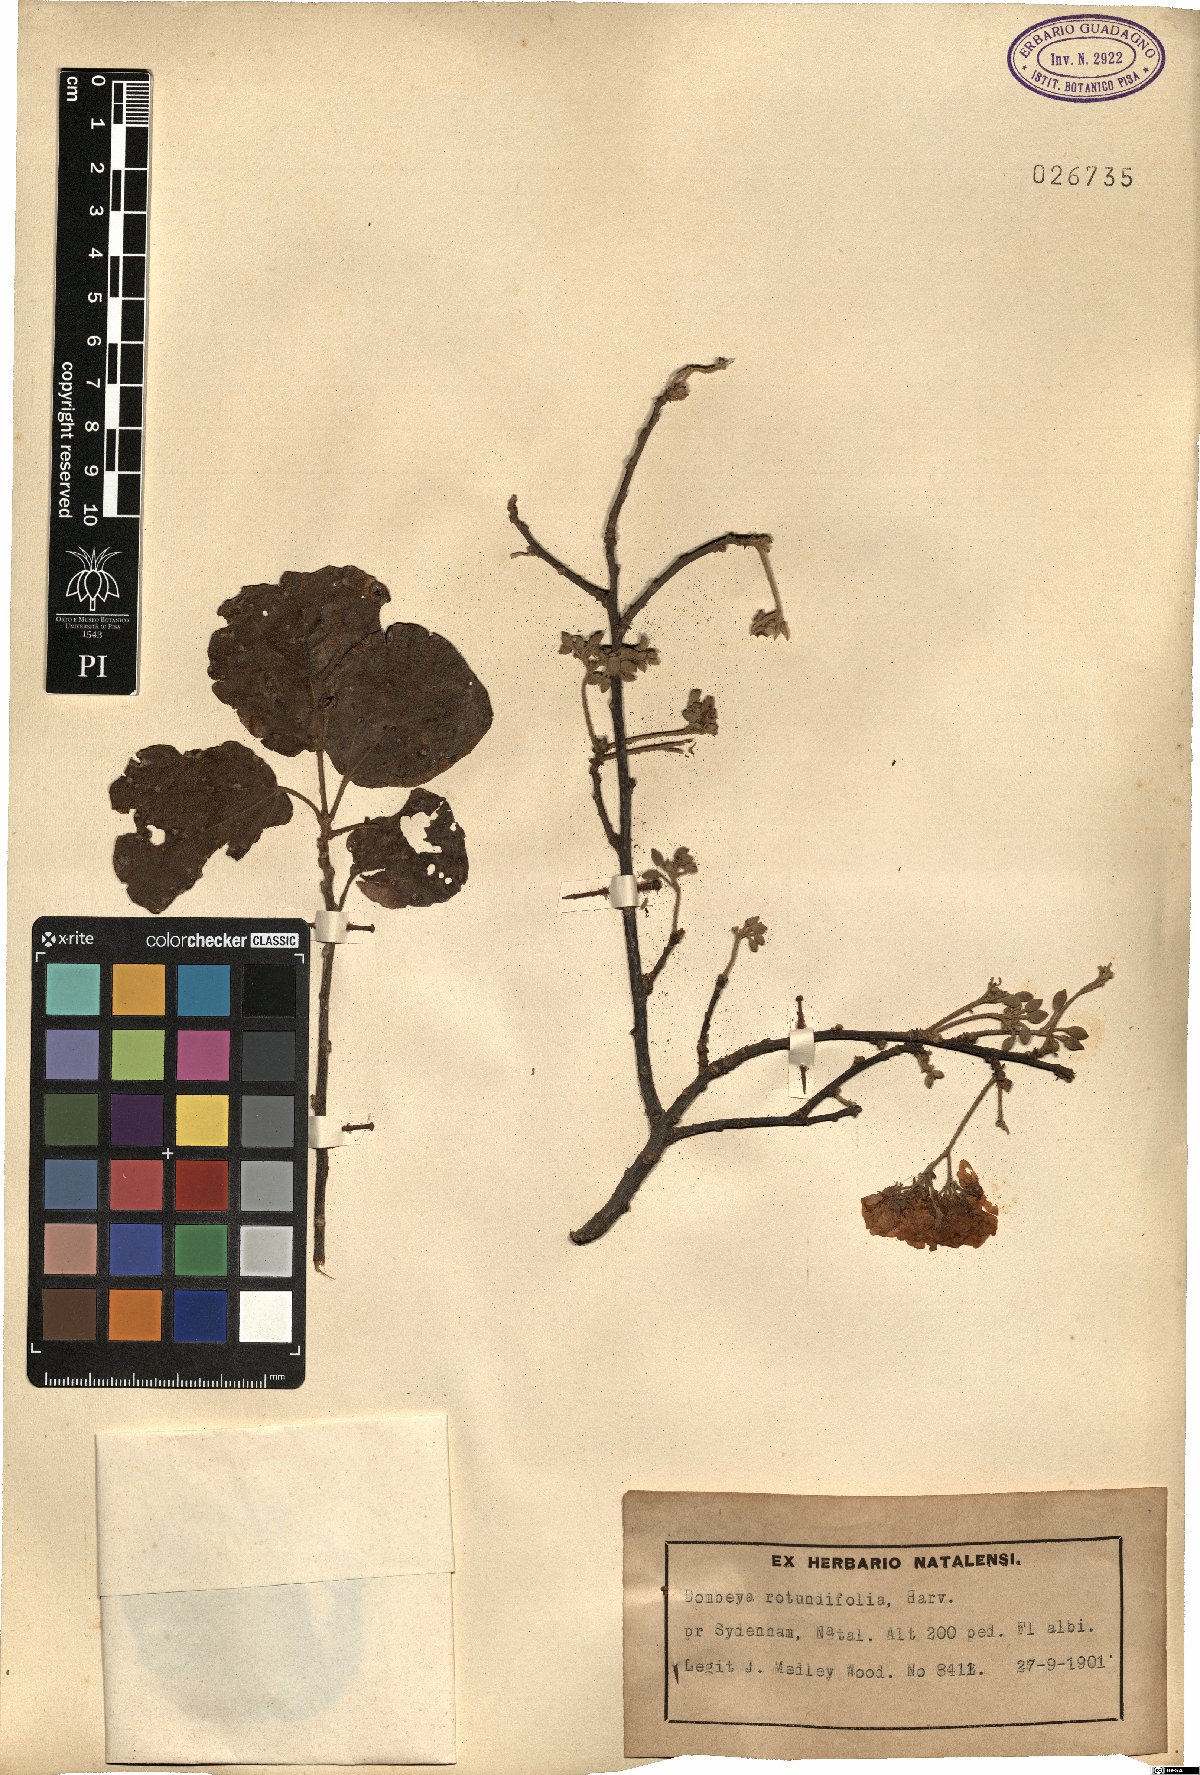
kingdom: Plantae
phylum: Tracheophyta
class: Magnoliopsida
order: Malvales
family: Malvaceae
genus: Dombeya
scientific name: Dombeya rotundifolia
